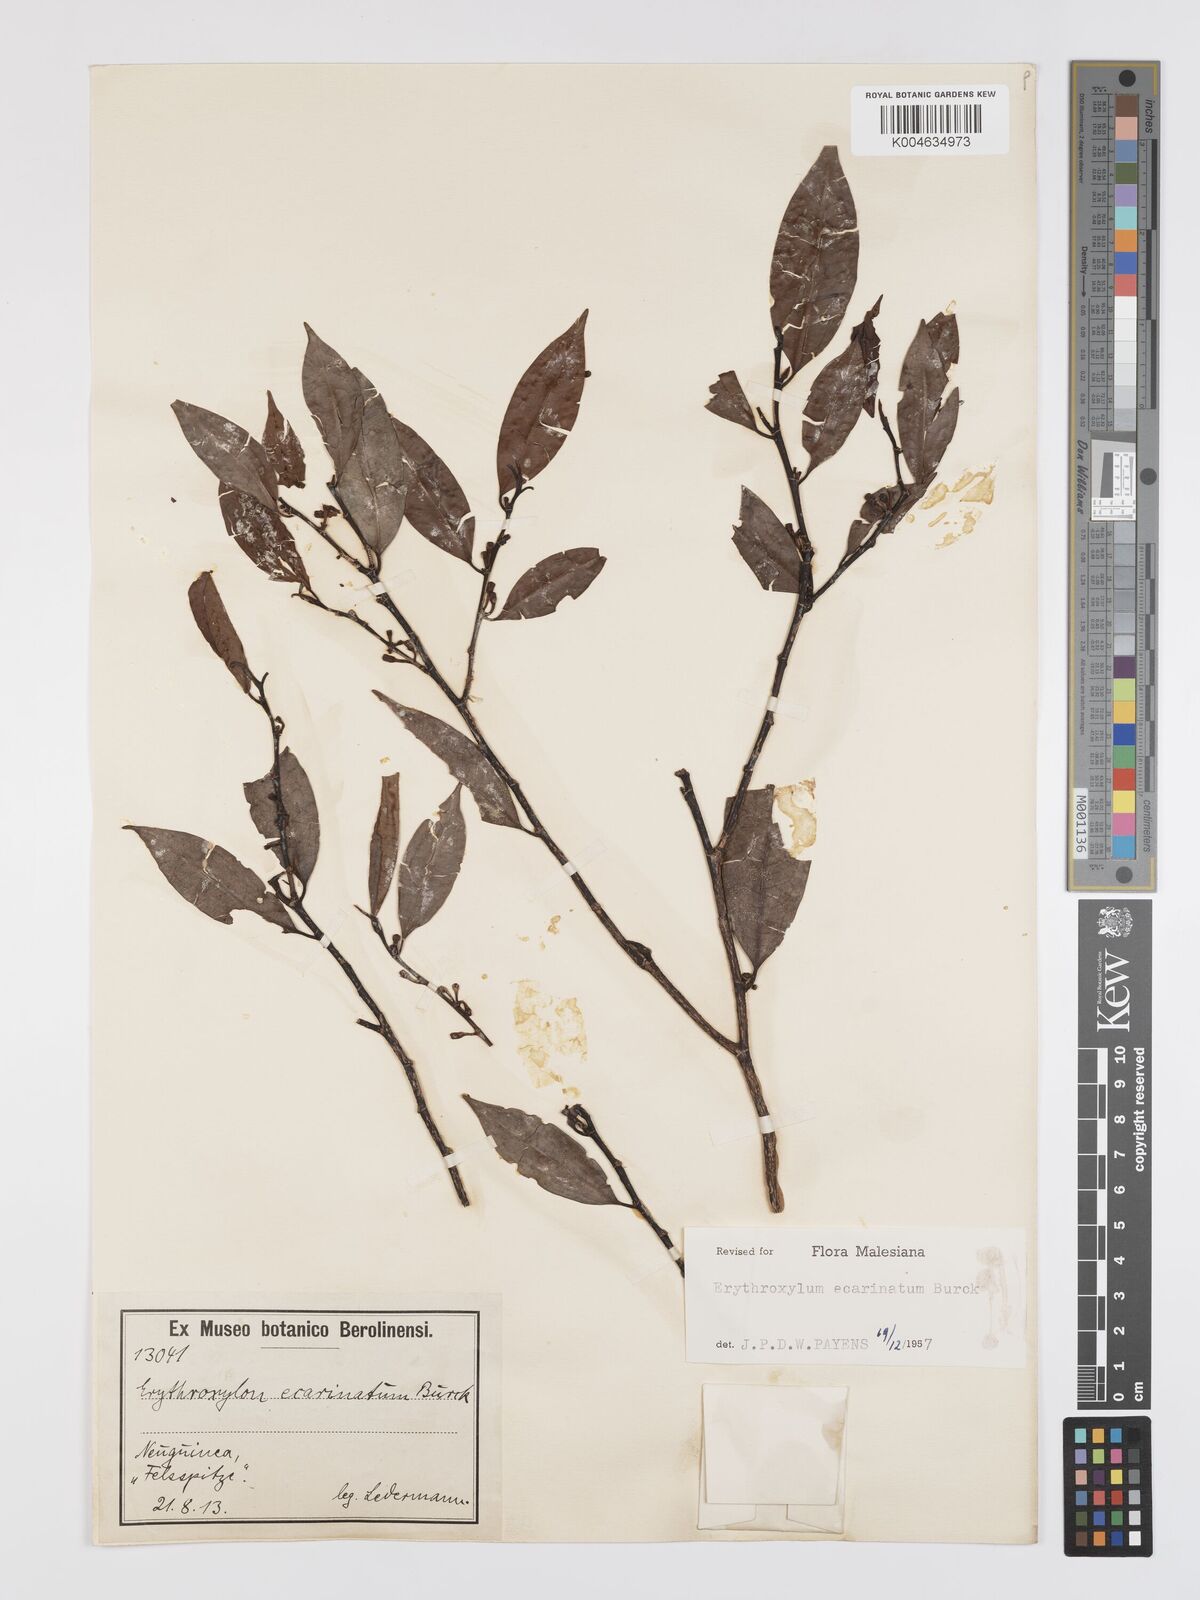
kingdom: Plantae
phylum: Tracheophyta
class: Magnoliopsida
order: Malpighiales
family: Erythroxylaceae
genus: Erythroxylum
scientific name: Erythroxylum ecarinatum
